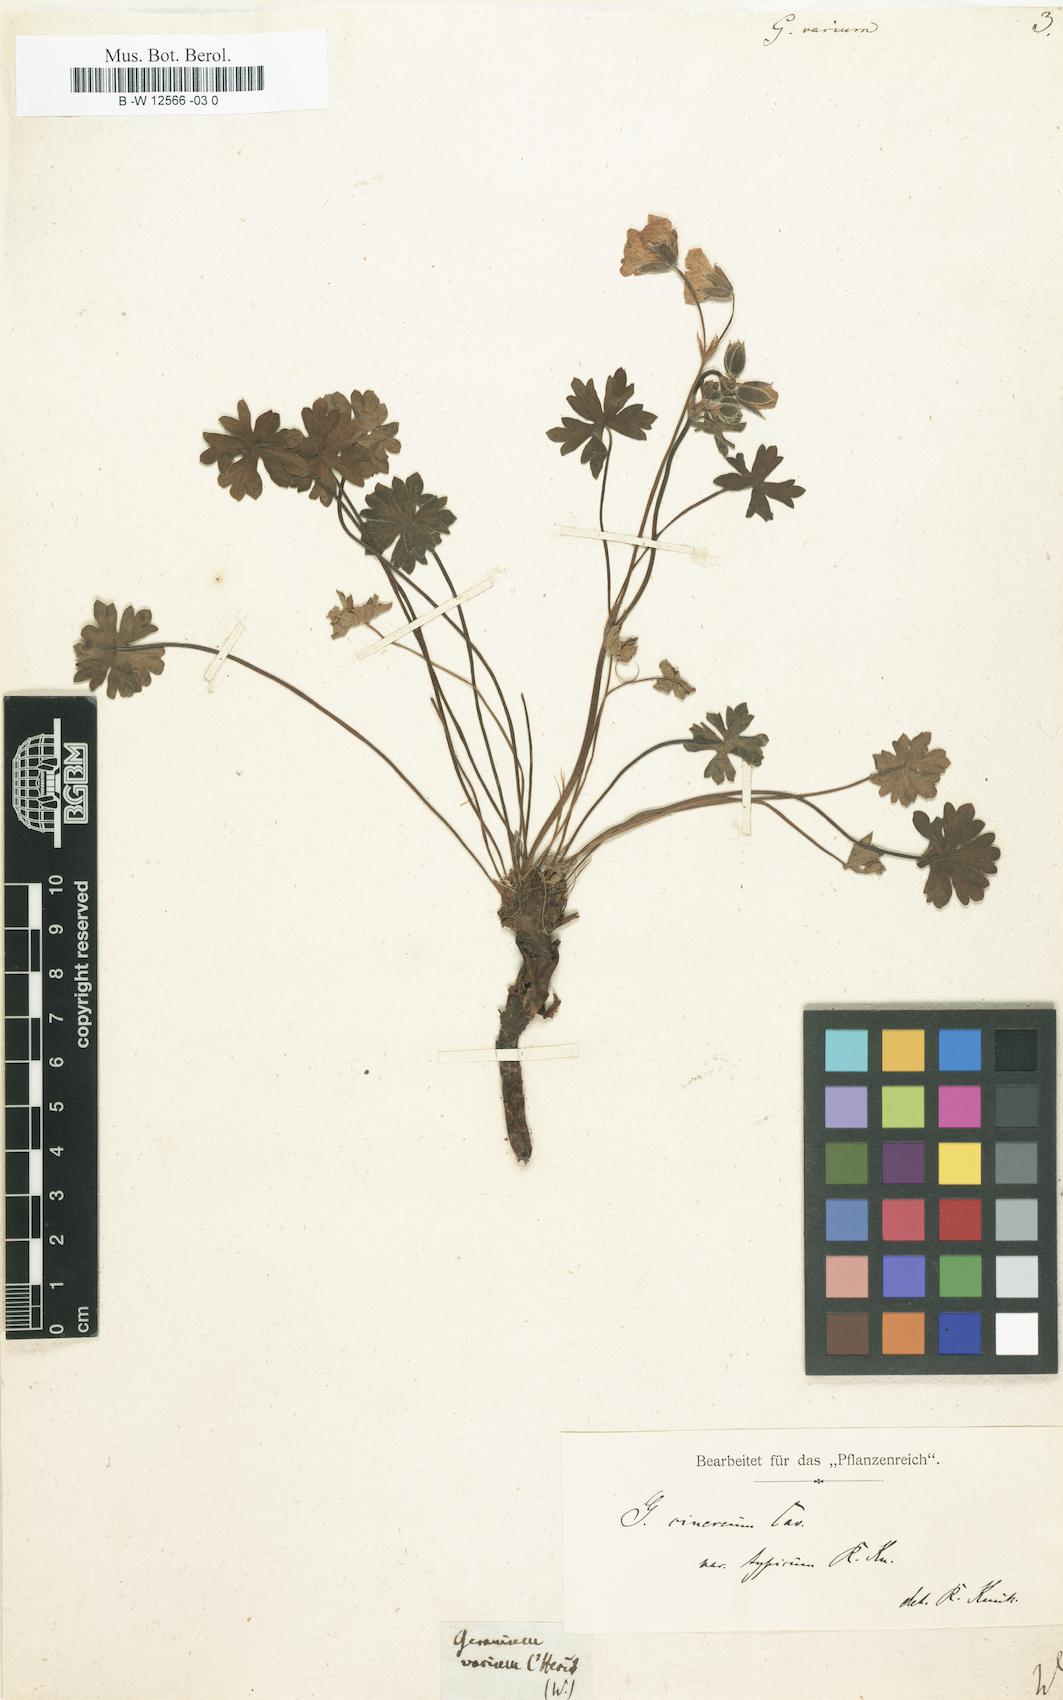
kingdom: Plantae
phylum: Tracheophyta
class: Magnoliopsida
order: Geraniales
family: Geraniaceae
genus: Geranium
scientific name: Geranium cinereum
